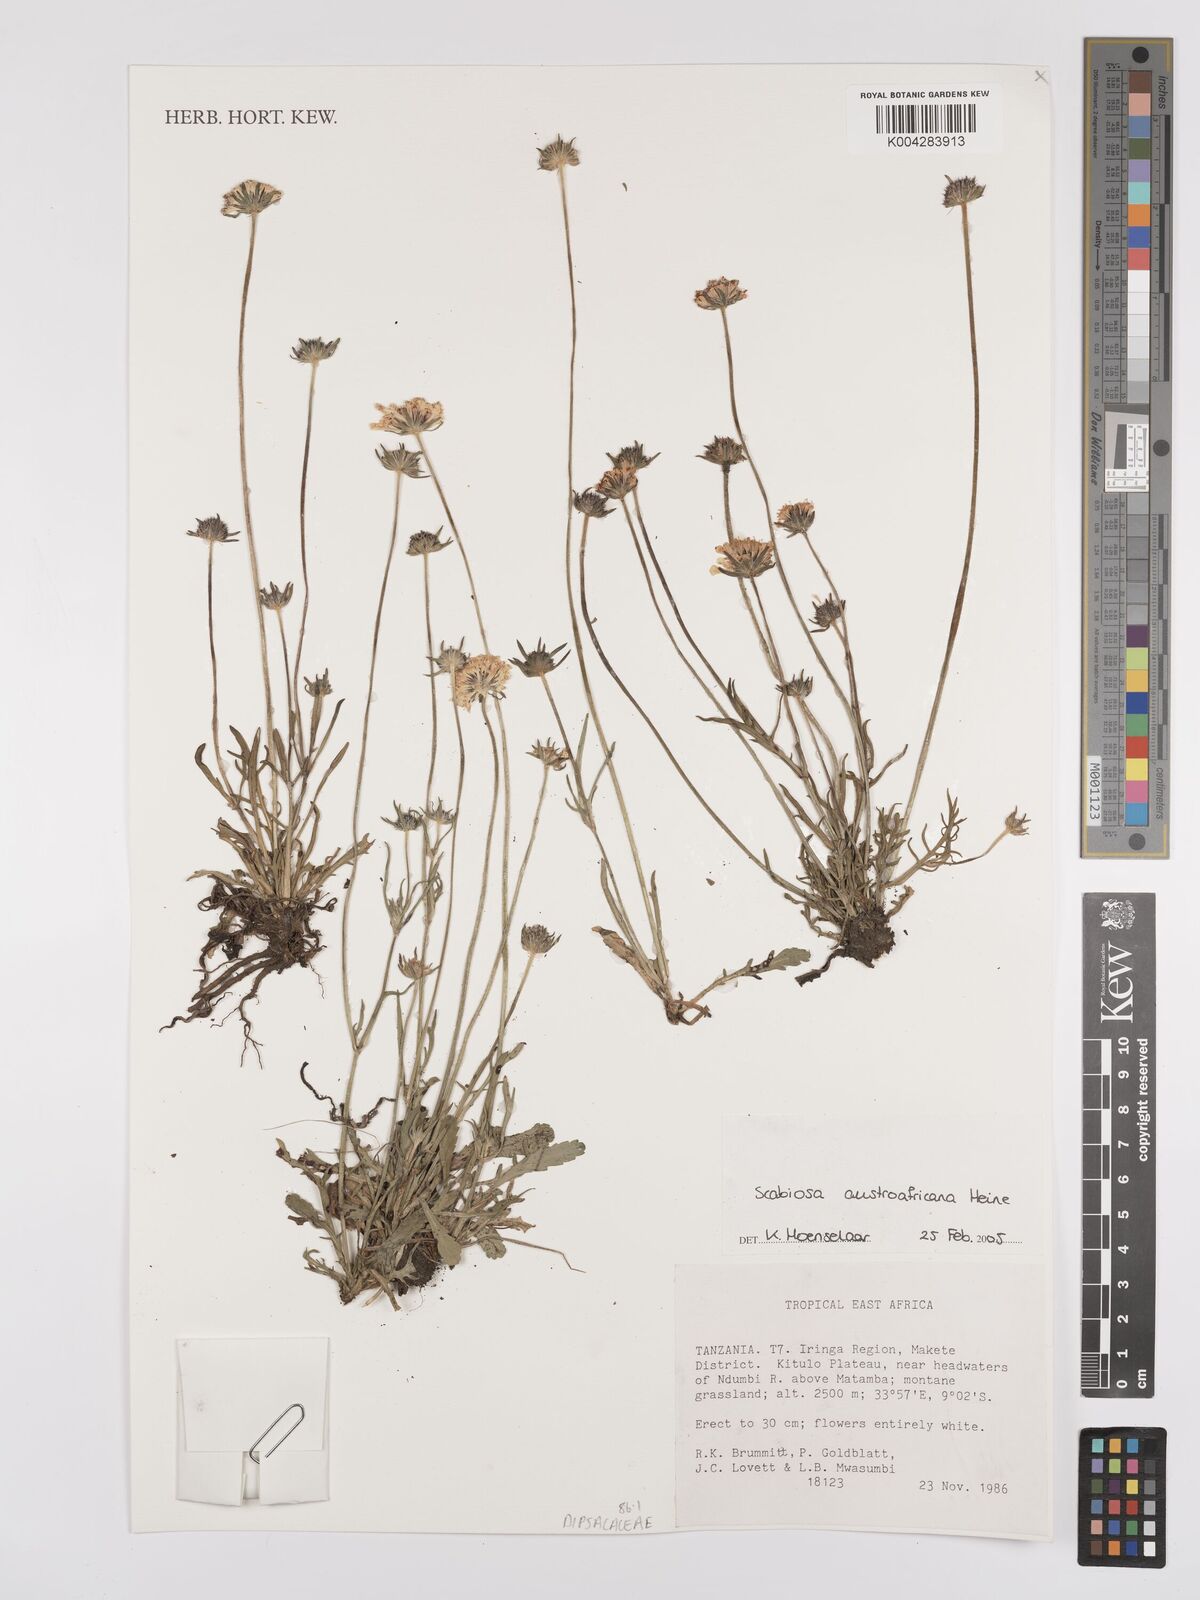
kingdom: Plantae
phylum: Tracheophyta
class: Magnoliopsida
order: Dipsacales
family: Caprifoliaceae
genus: Scabiosa
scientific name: Scabiosa austroafricana
